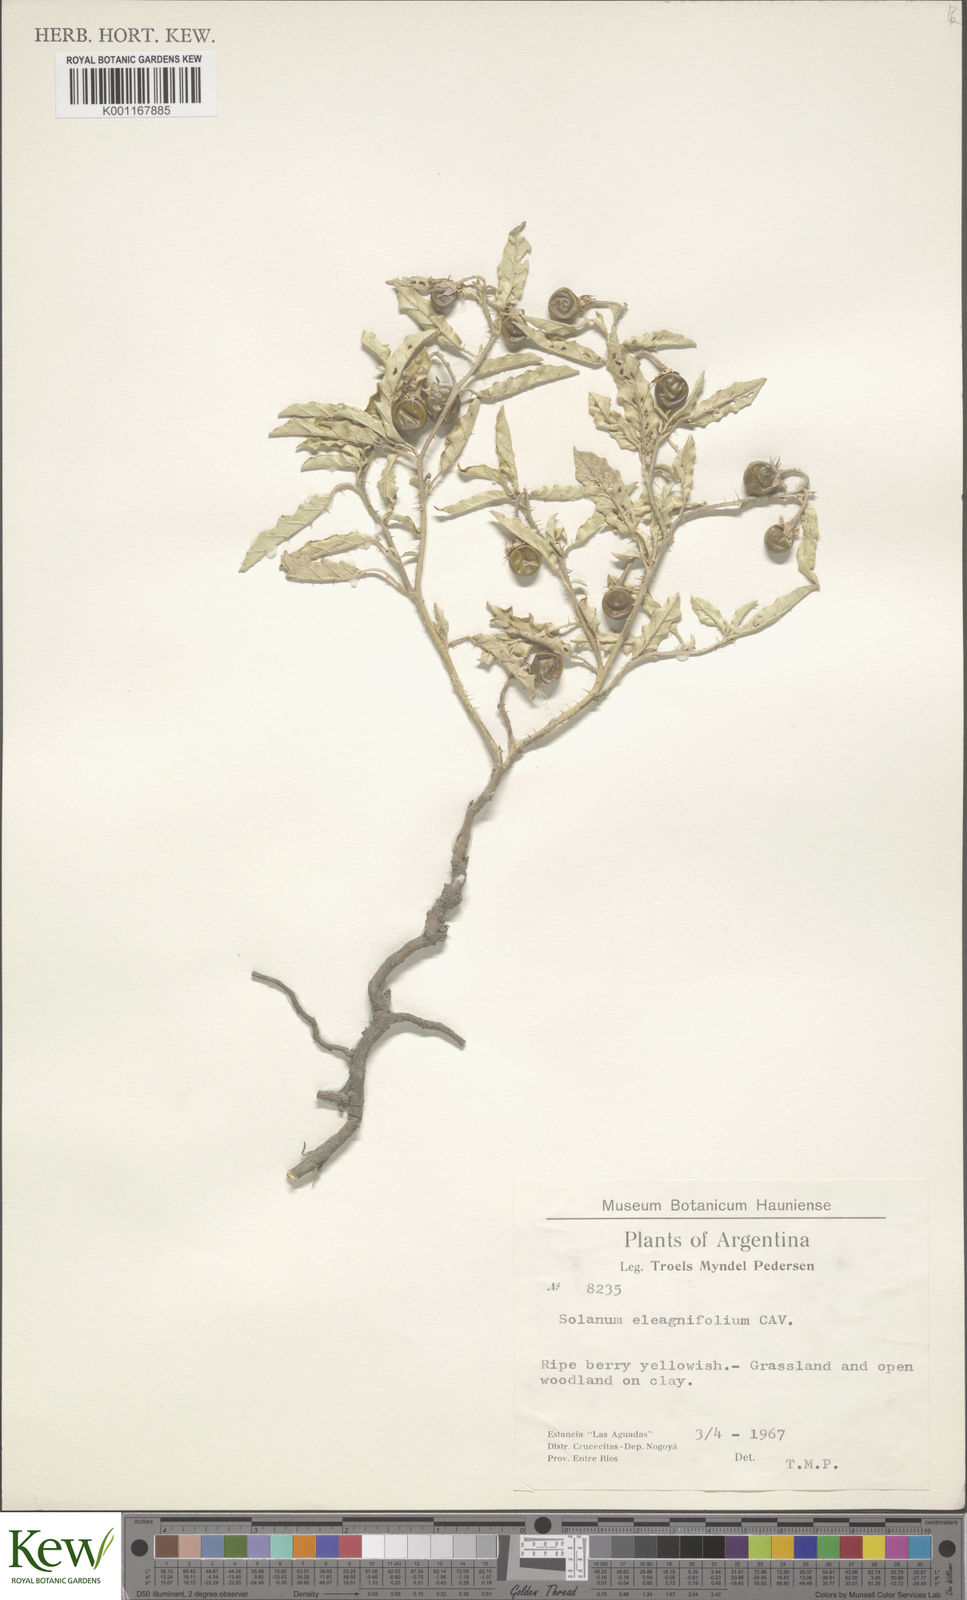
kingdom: Plantae
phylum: Tracheophyta
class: Magnoliopsida
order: Solanales
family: Solanaceae
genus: Solanum
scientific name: Solanum elaeagnifolium
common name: Silverleaf nightshade
